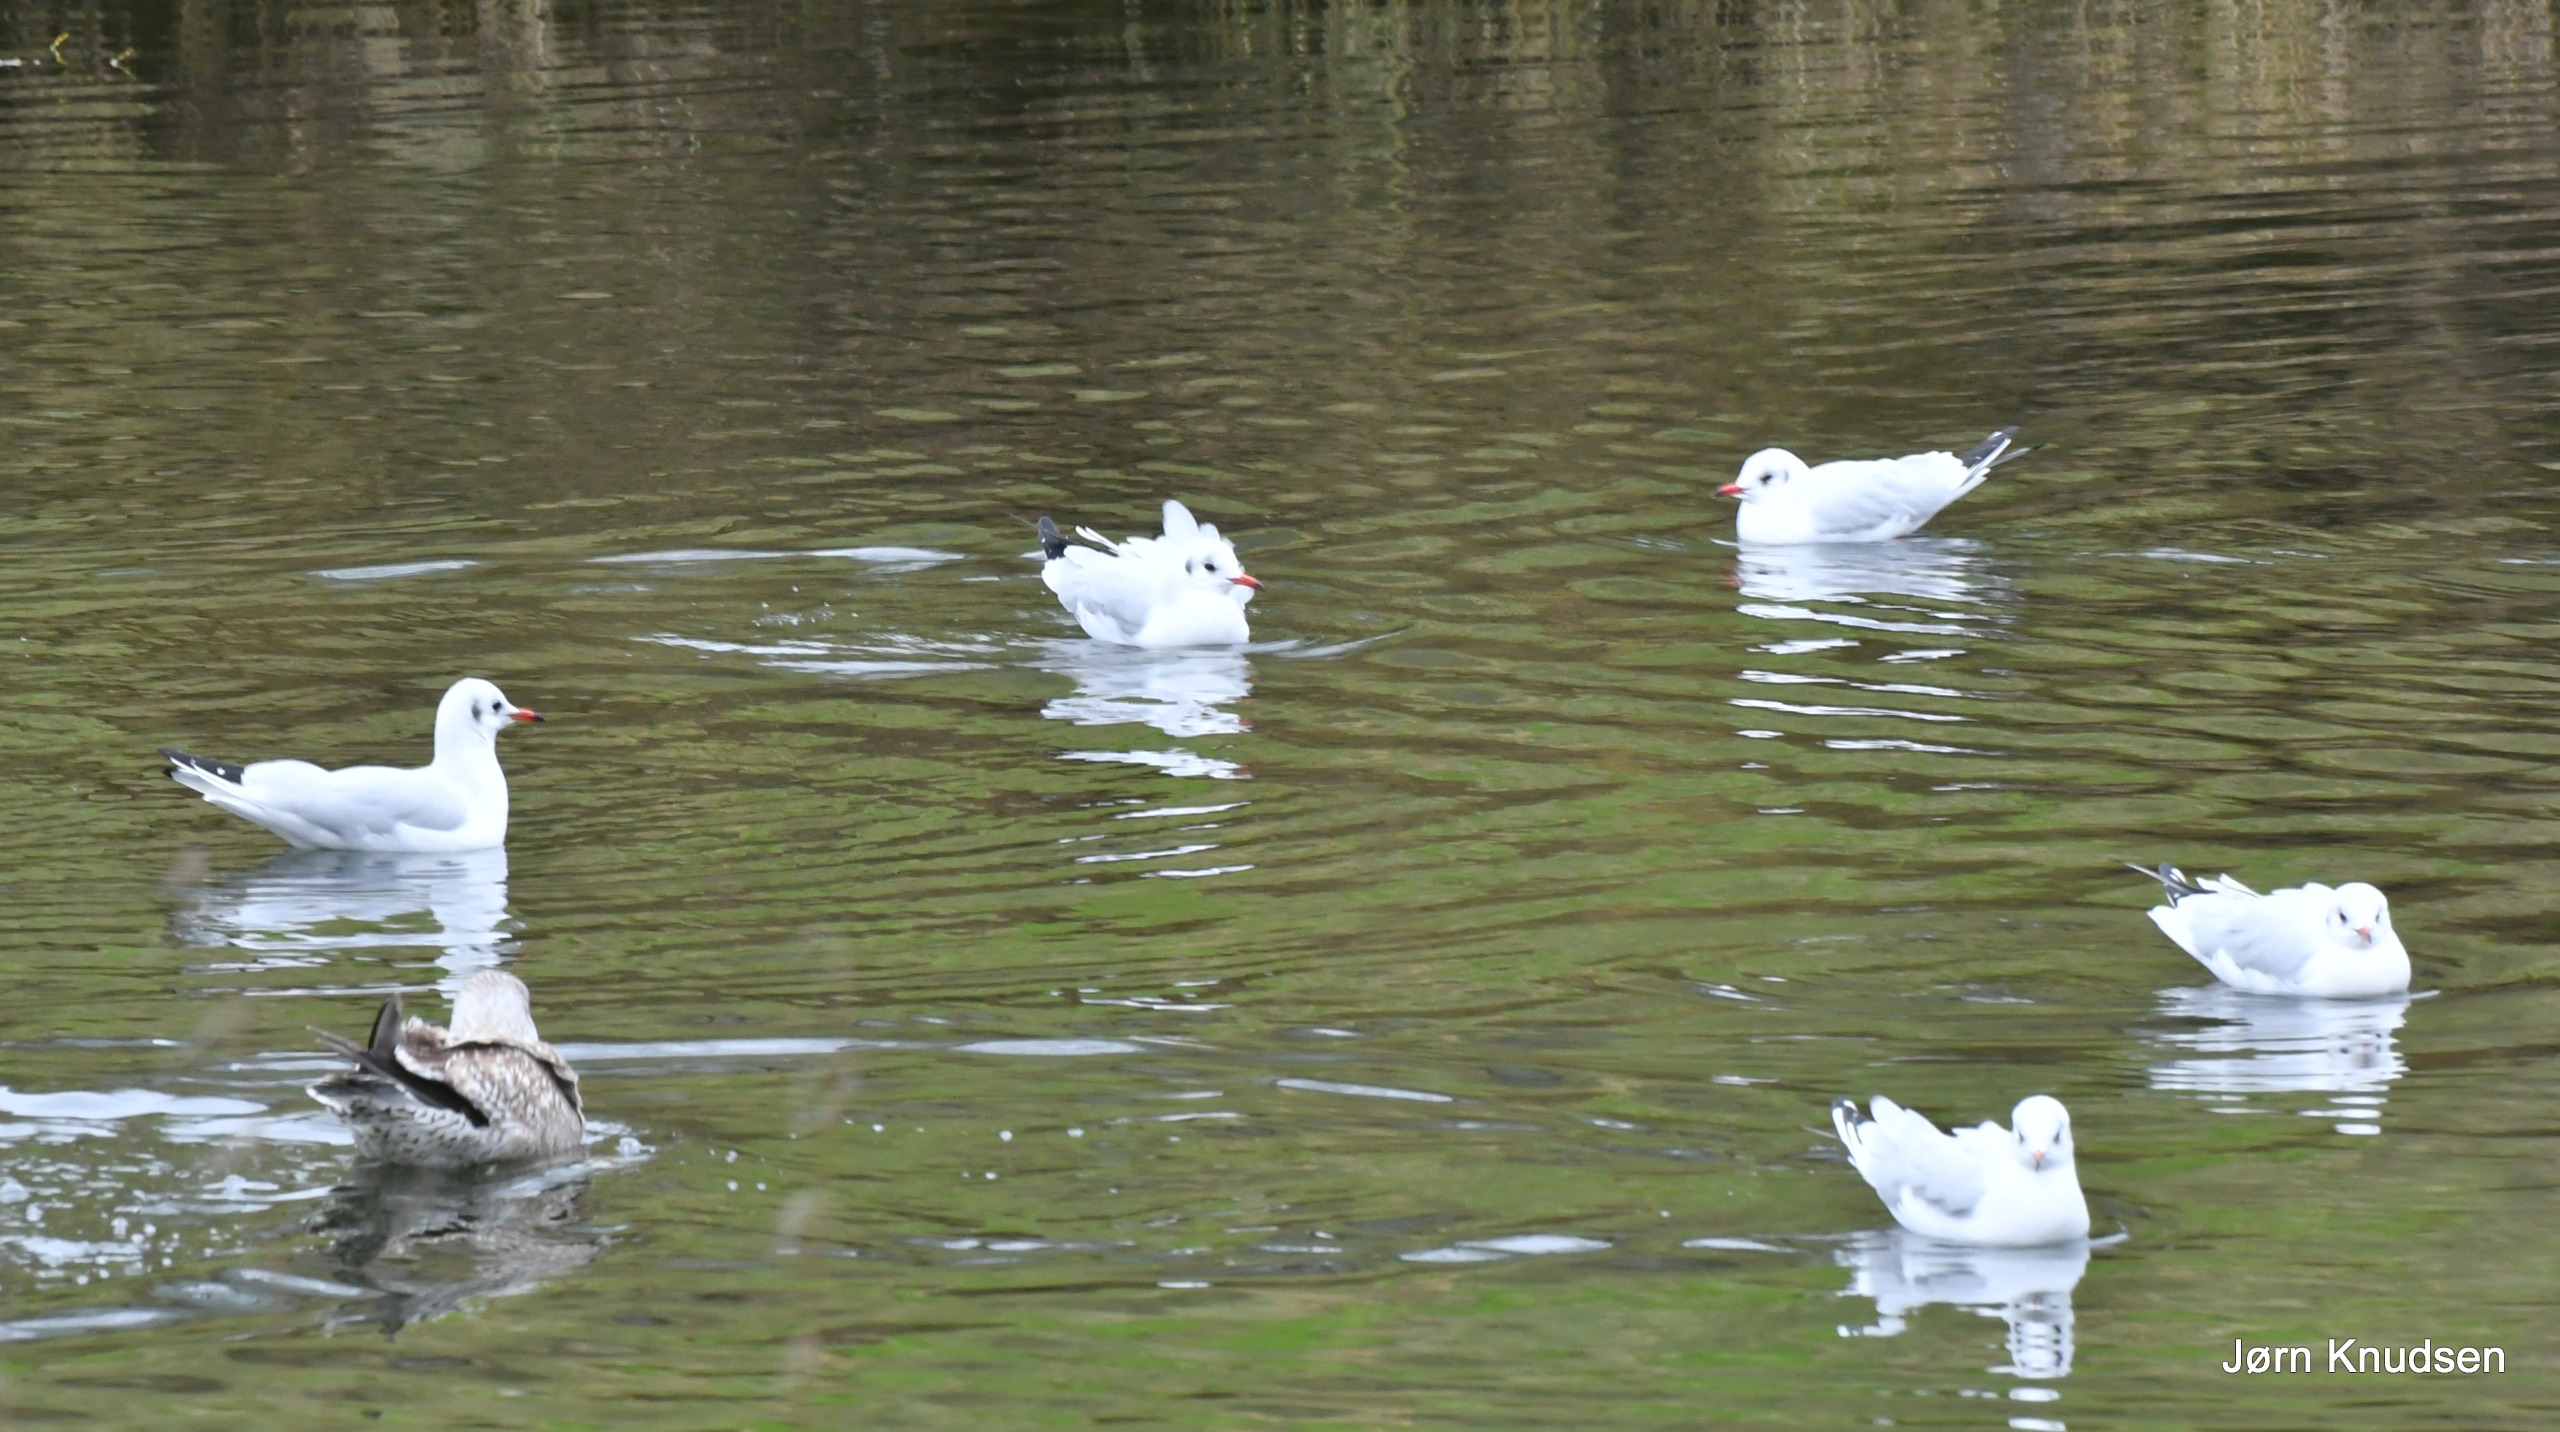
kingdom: Animalia
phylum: Chordata
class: Aves
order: Charadriiformes
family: Laridae
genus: Chroicocephalus
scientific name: Chroicocephalus ridibundus
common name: Hættemåge
